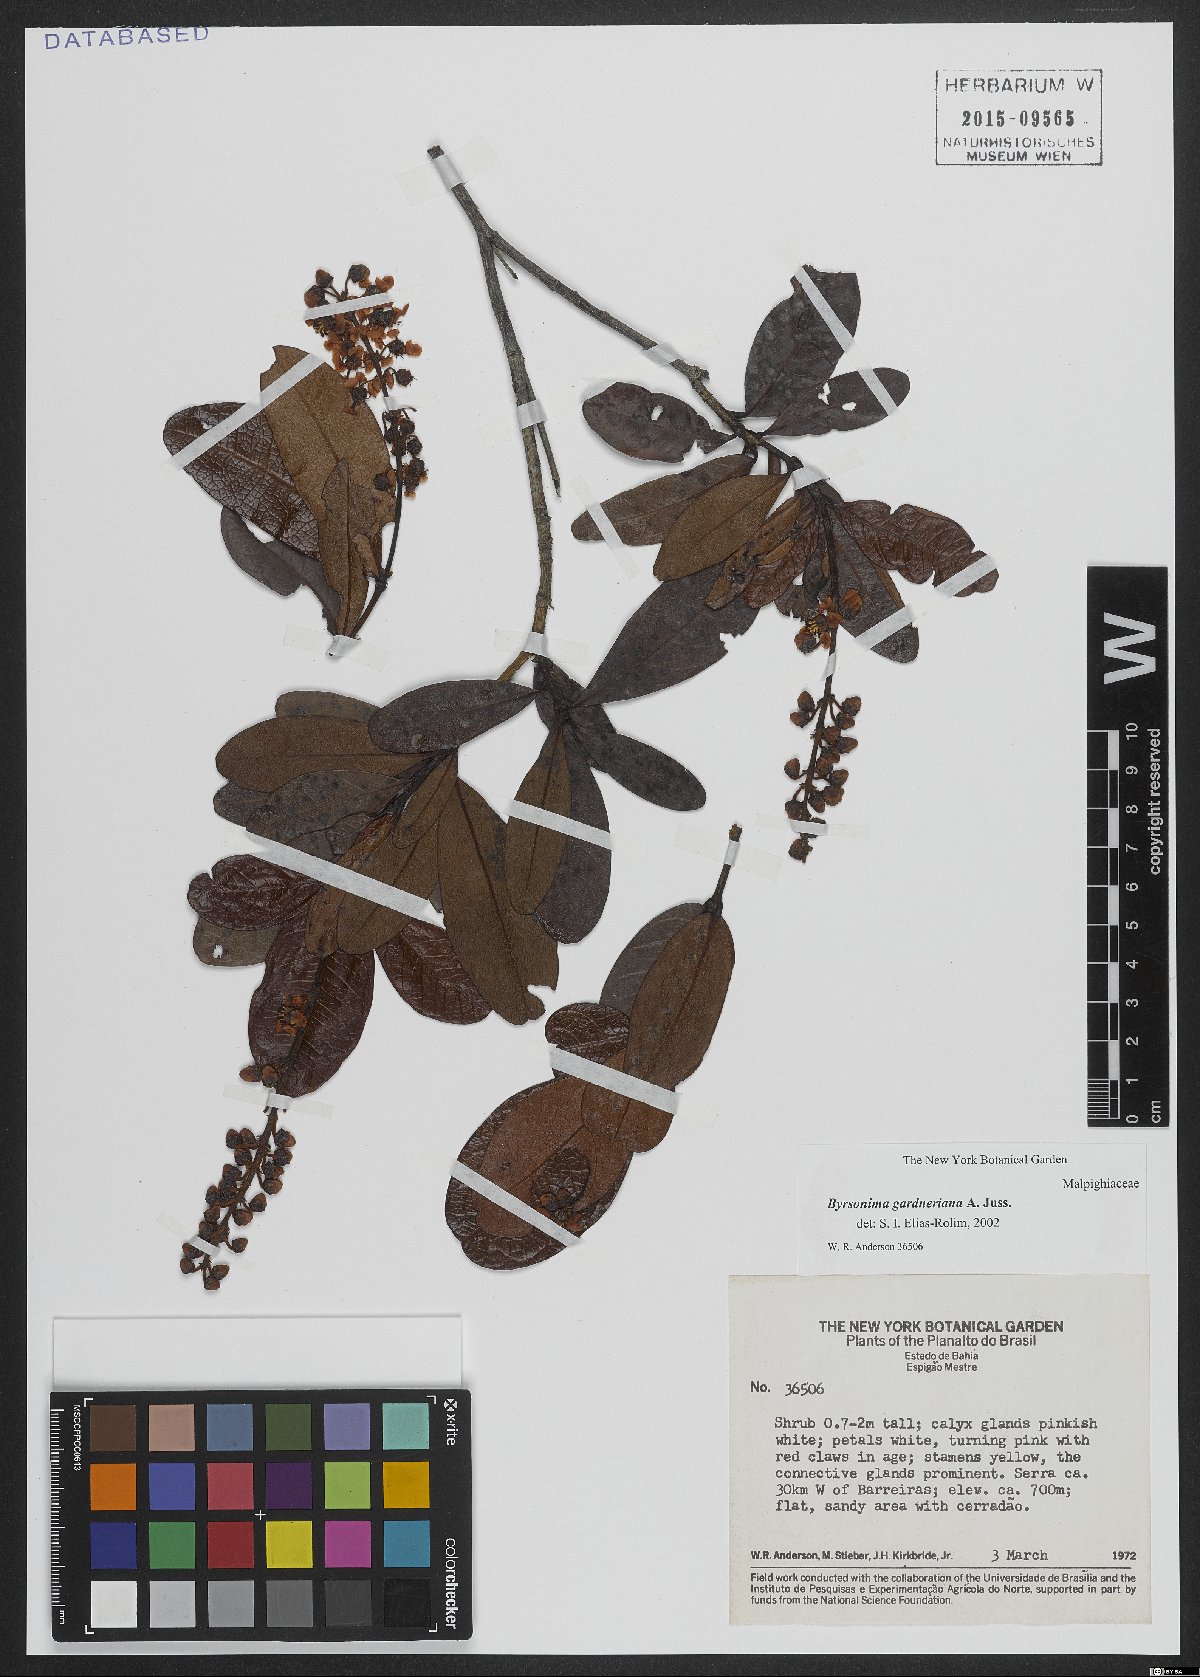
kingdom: Plantae
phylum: Tracheophyta
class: Magnoliopsida
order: Malpighiales
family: Malpighiaceae
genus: Byrsonima
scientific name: Byrsonima gardneriana
